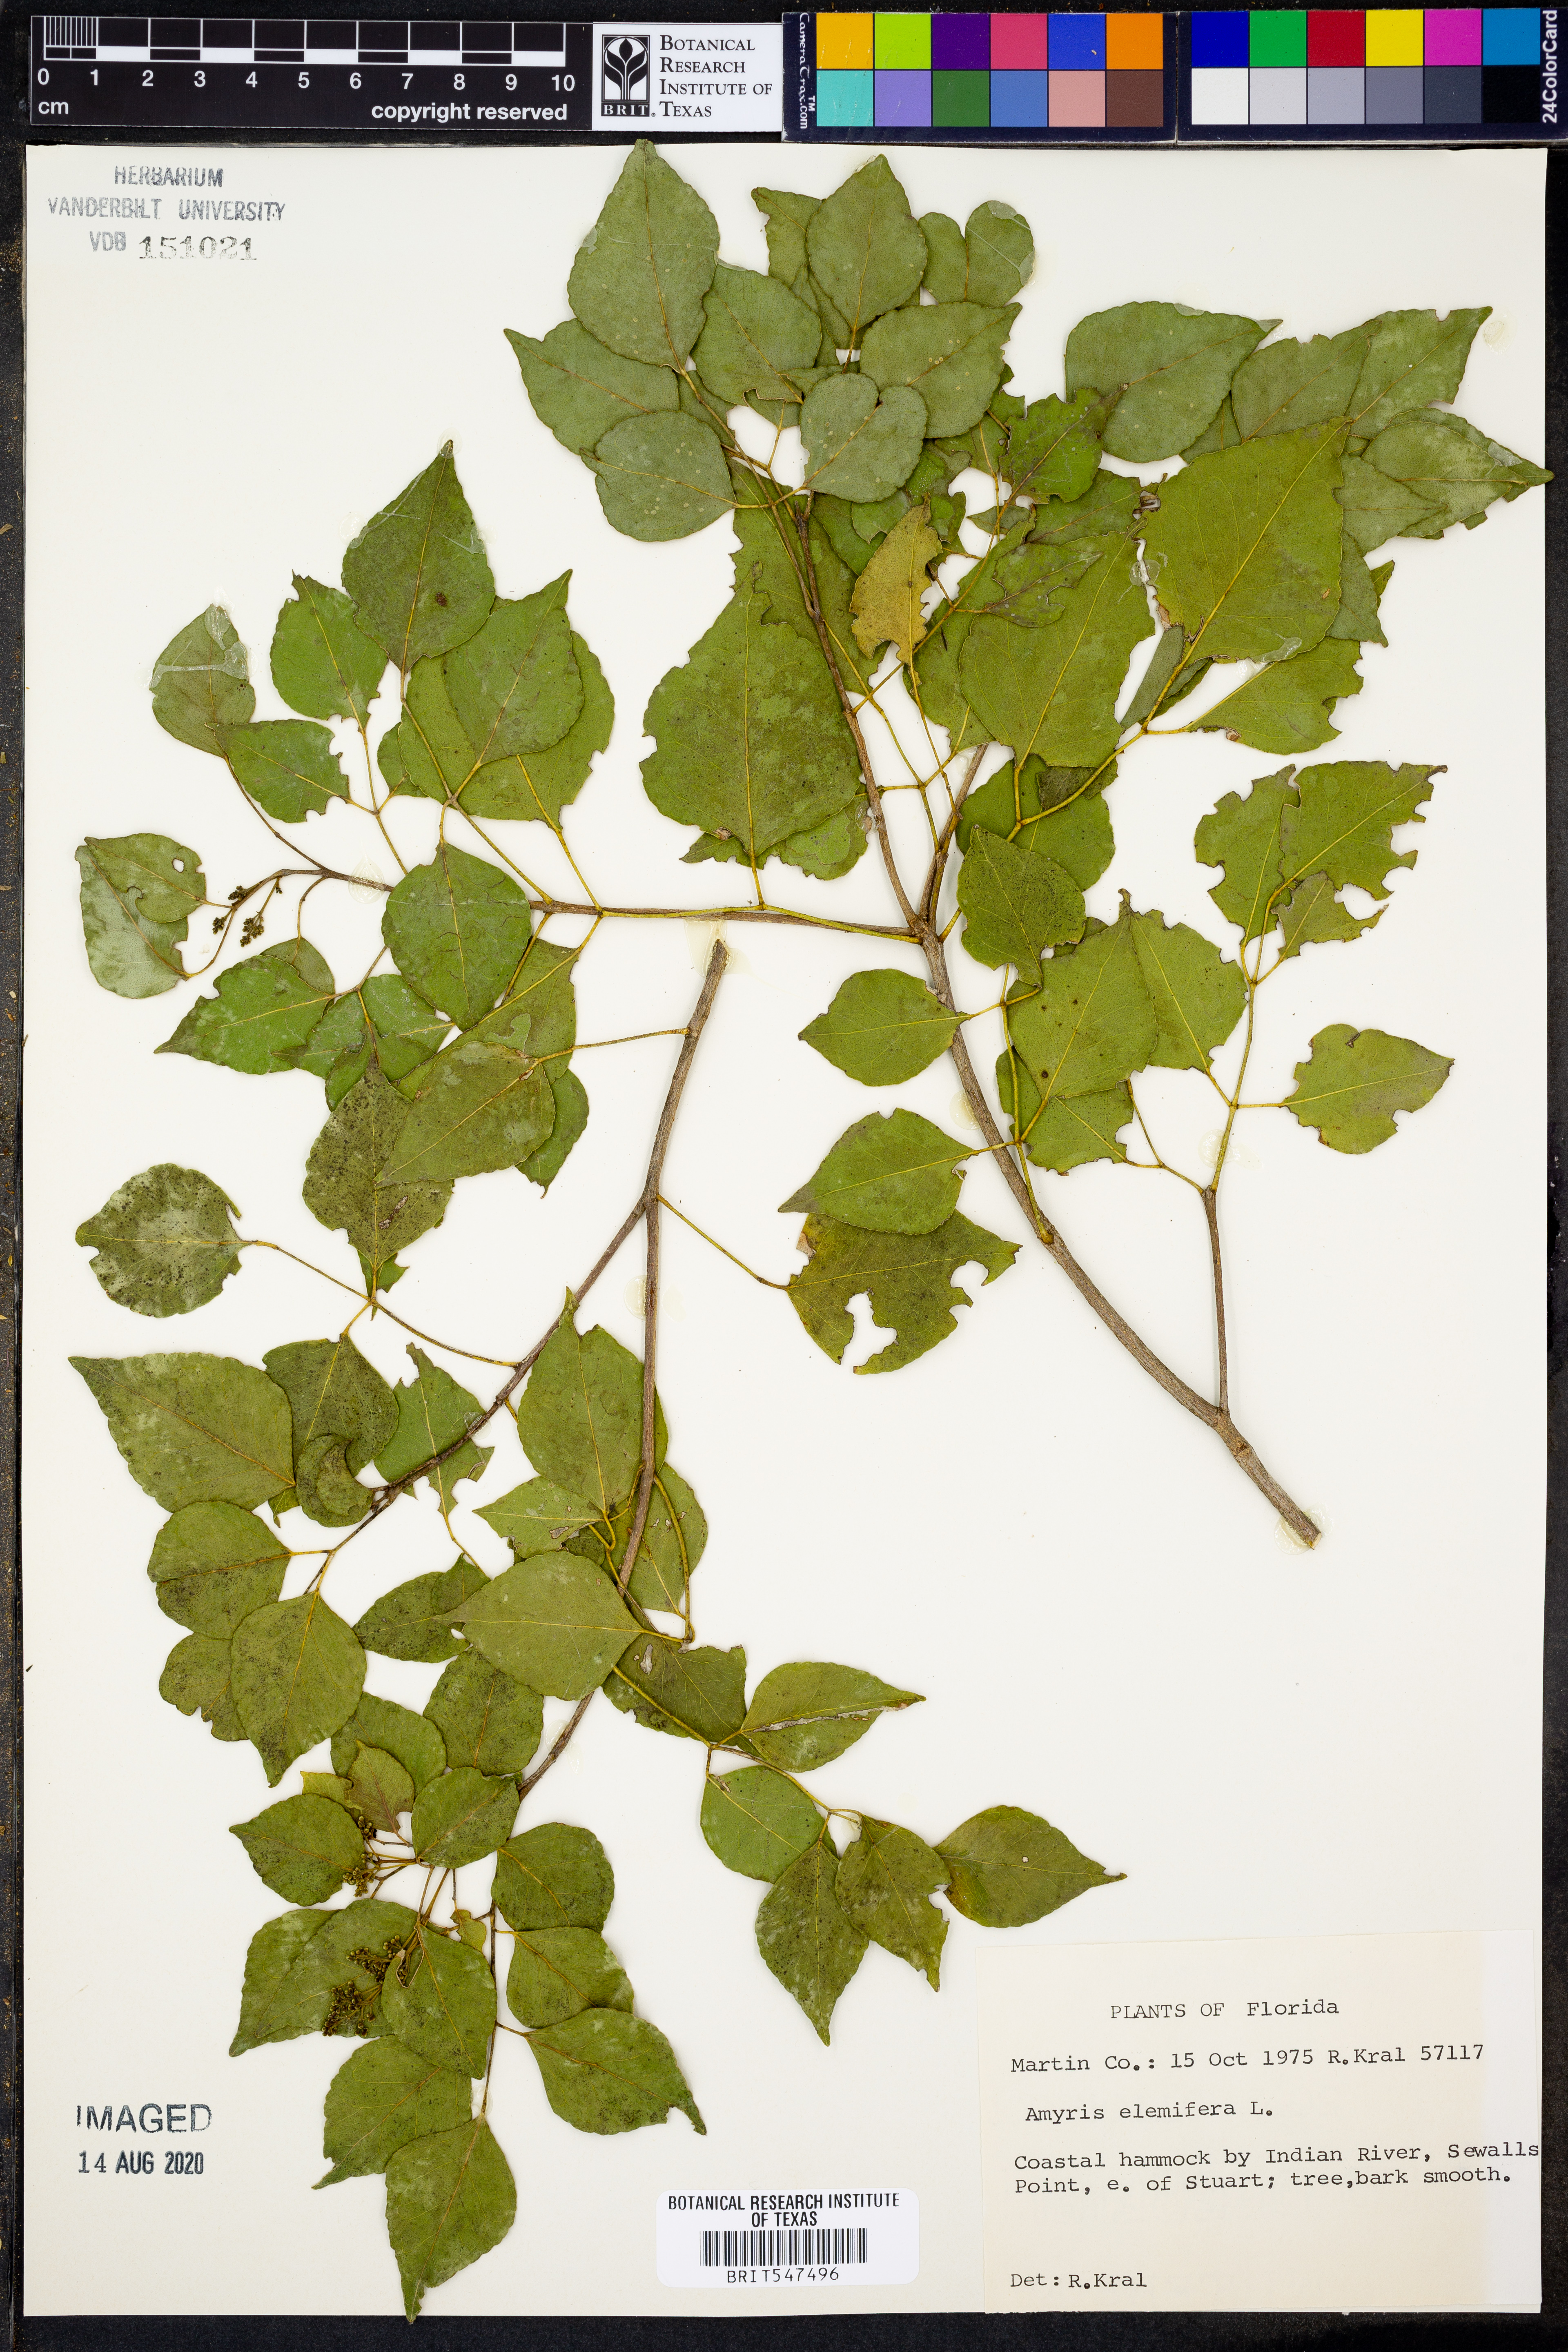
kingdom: Plantae
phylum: Tracheophyta
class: Magnoliopsida
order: Sapindales
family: Rutaceae
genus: Amyris
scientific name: Amyris elemifera
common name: Sea amyris
